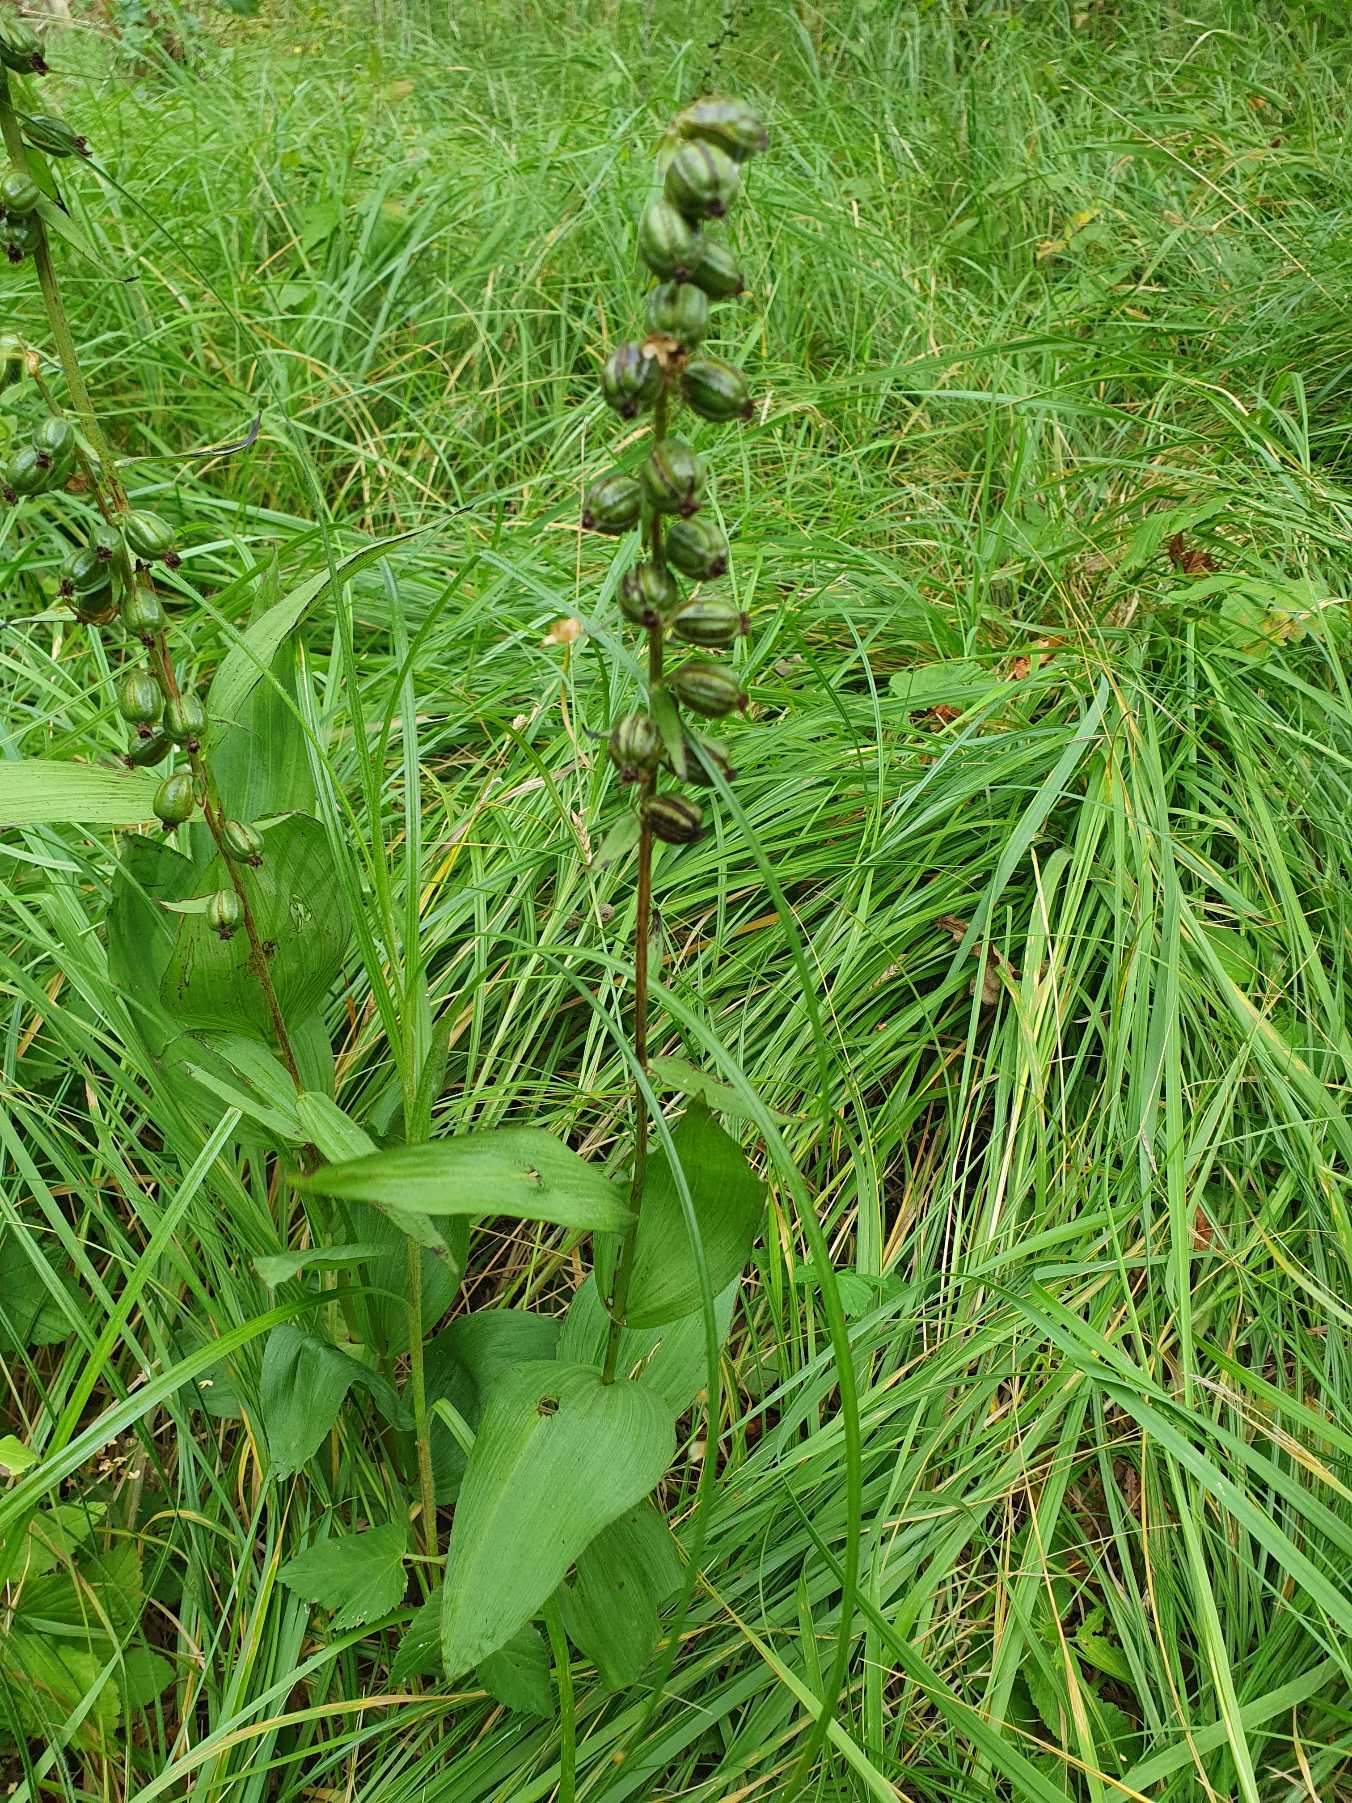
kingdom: Plantae
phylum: Tracheophyta
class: Liliopsida
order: Asparagales
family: Orchidaceae
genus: Epipactis
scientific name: Epipactis helleborine
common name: Skov-hullæbe
